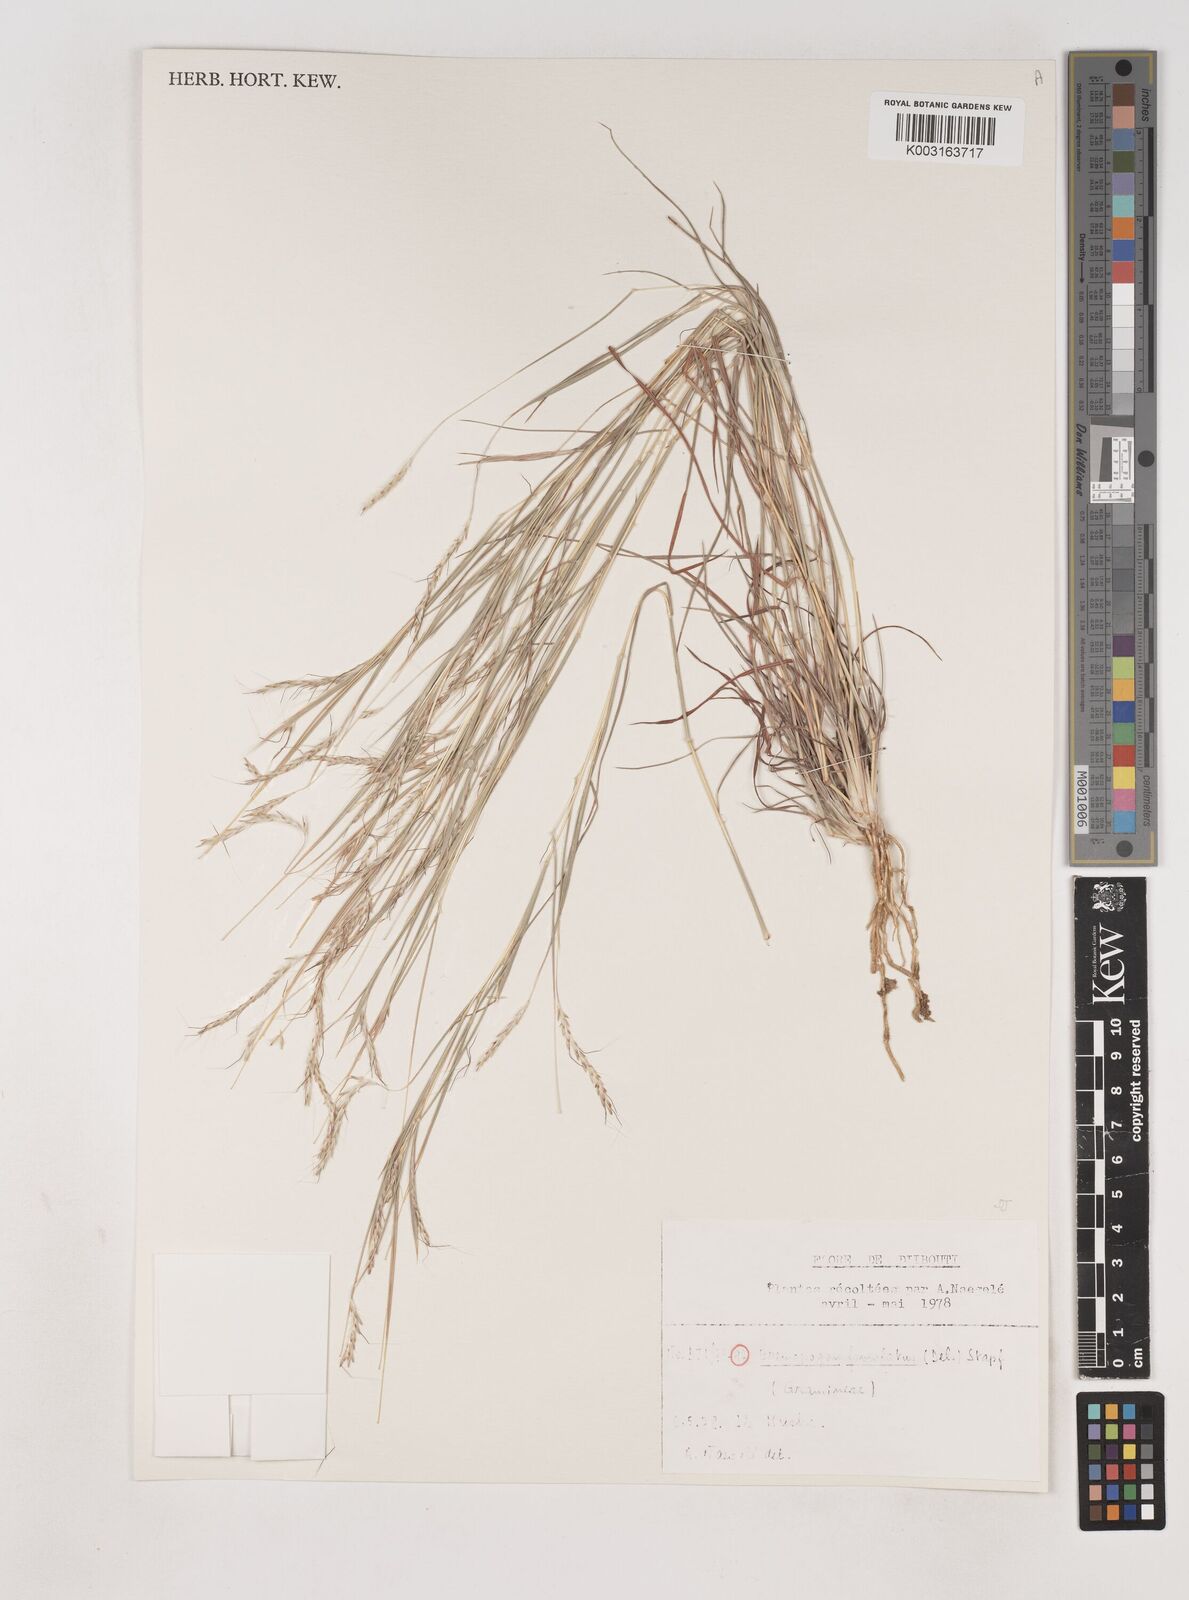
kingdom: Plantae
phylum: Tracheophyta
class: Liliopsida
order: Poales
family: Poaceae
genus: Dichanthium
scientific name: Dichanthium foveolatum
